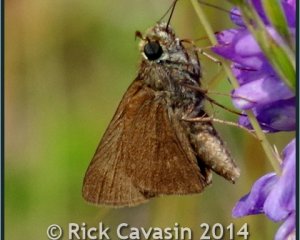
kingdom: Animalia
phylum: Arthropoda
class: Insecta
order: Lepidoptera
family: Hesperiidae
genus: Euphyes
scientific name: Euphyes vestris
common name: Dun Skipper
